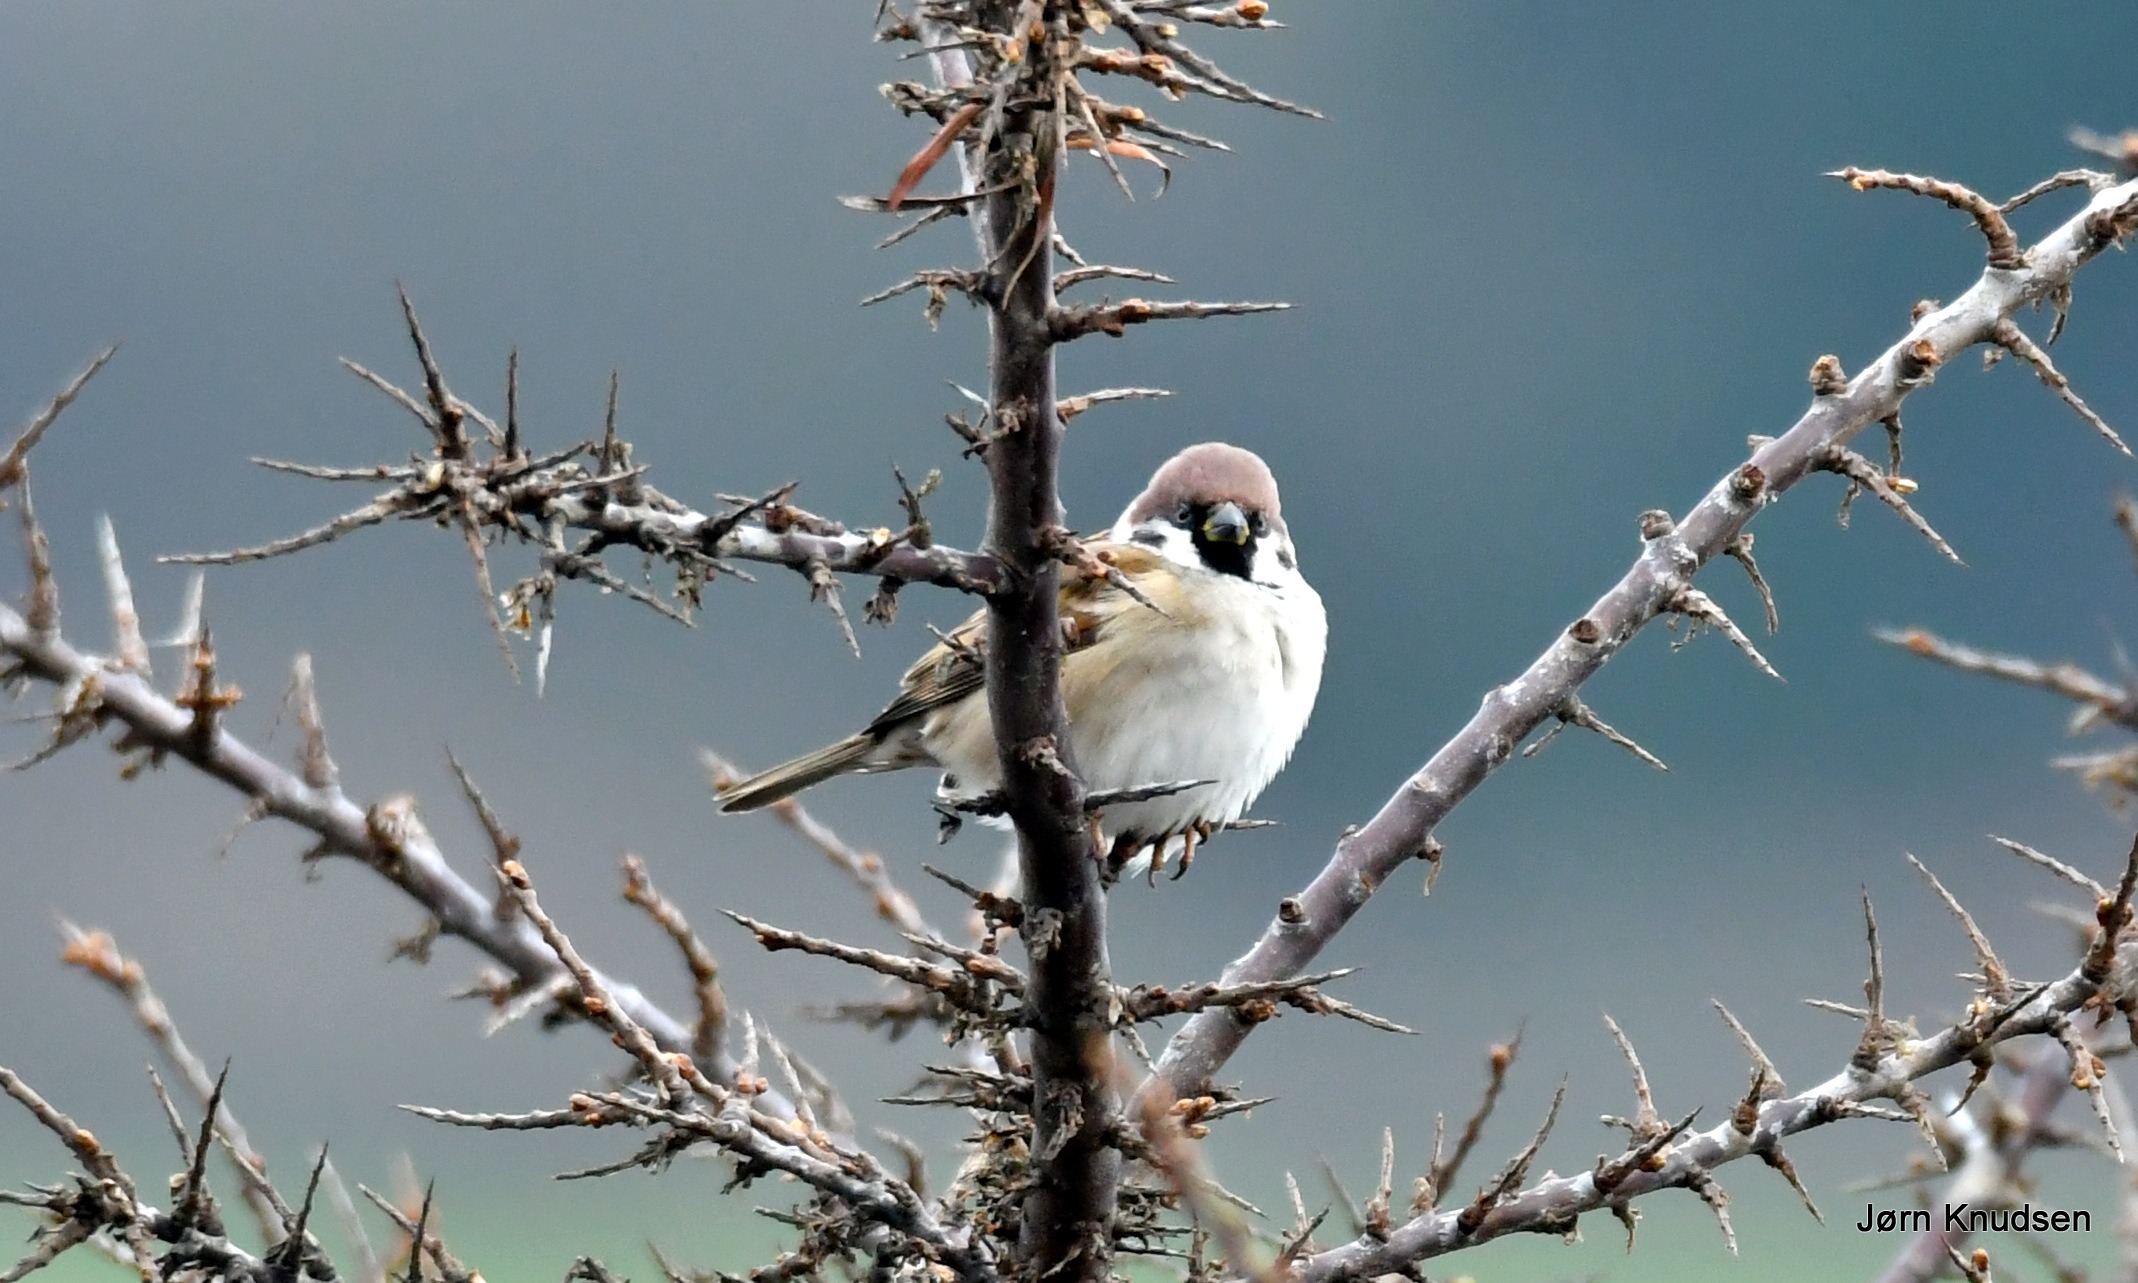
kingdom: Animalia
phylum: Chordata
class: Aves
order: Passeriformes
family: Passeridae
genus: Passer
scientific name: Passer montanus
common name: Skovspurv
